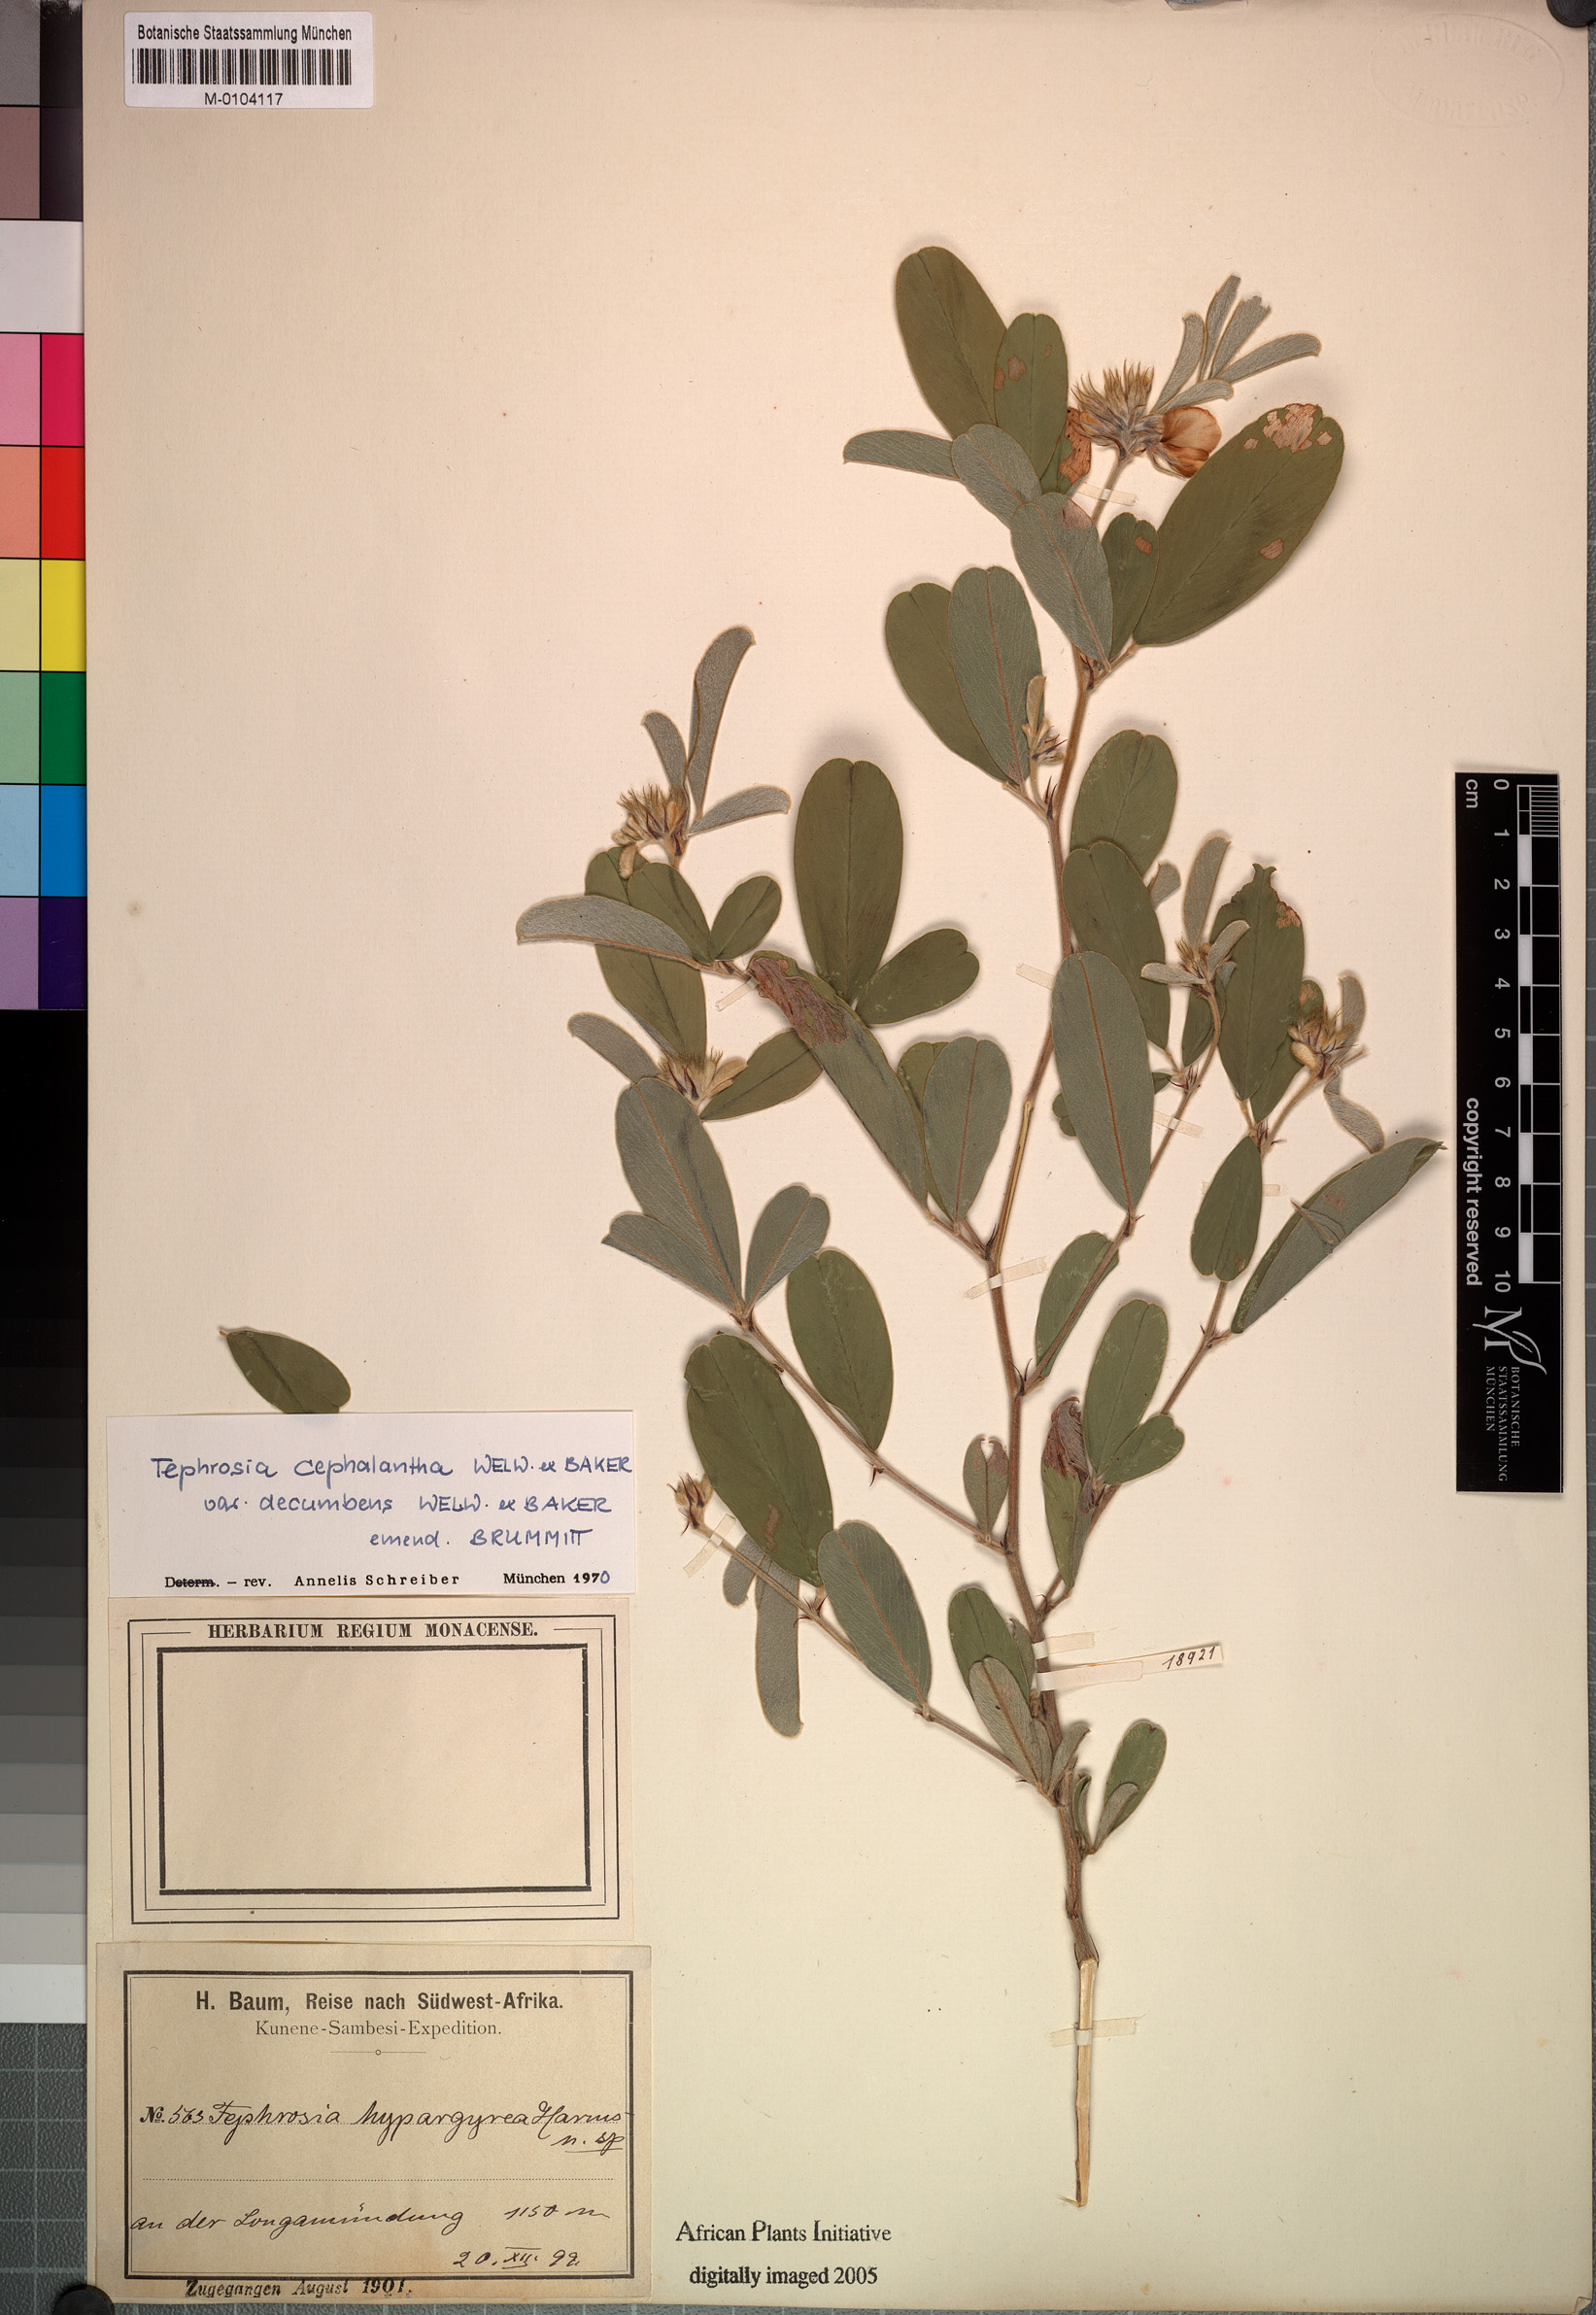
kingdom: Plantae
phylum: Tracheophyta
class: Magnoliopsida
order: Fabales
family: Fabaceae
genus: Tephrosia
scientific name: Tephrosia cephalantha
